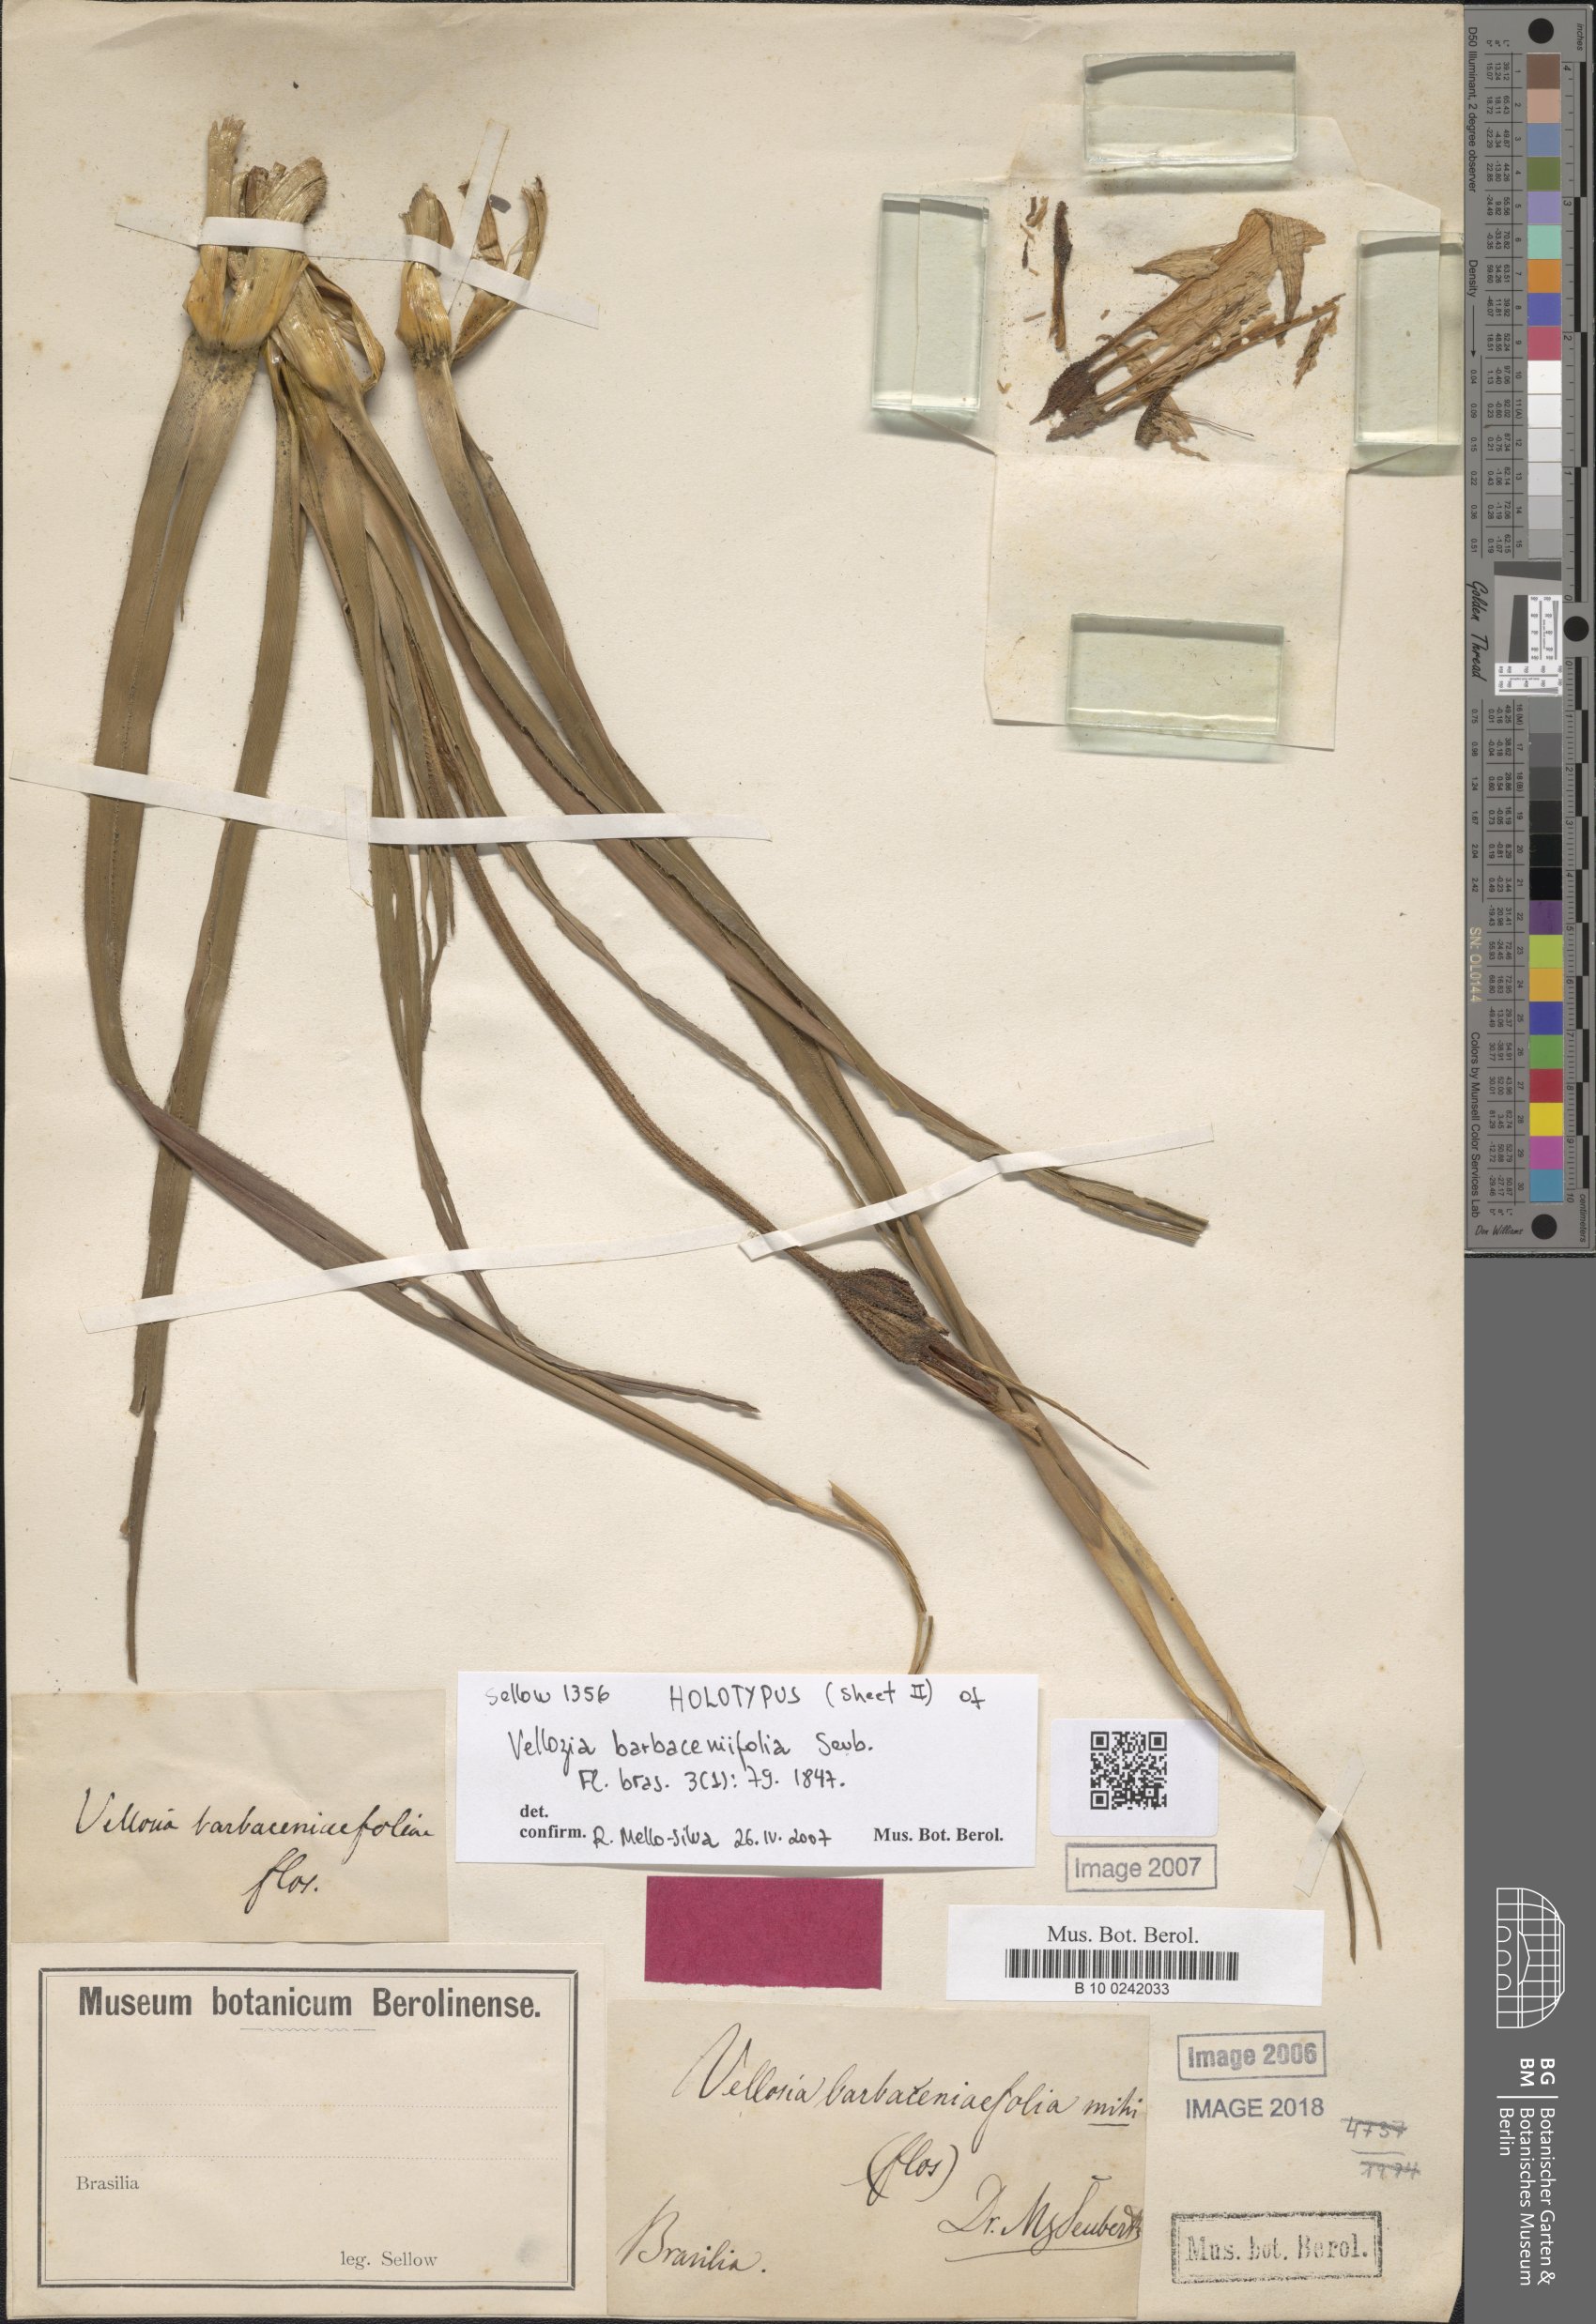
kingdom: Plantae
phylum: Tracheophyta
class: Liliopsida
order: Pandanales
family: Velloziaceae
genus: Vellozia
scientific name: Vellozia barbaceniifolia
